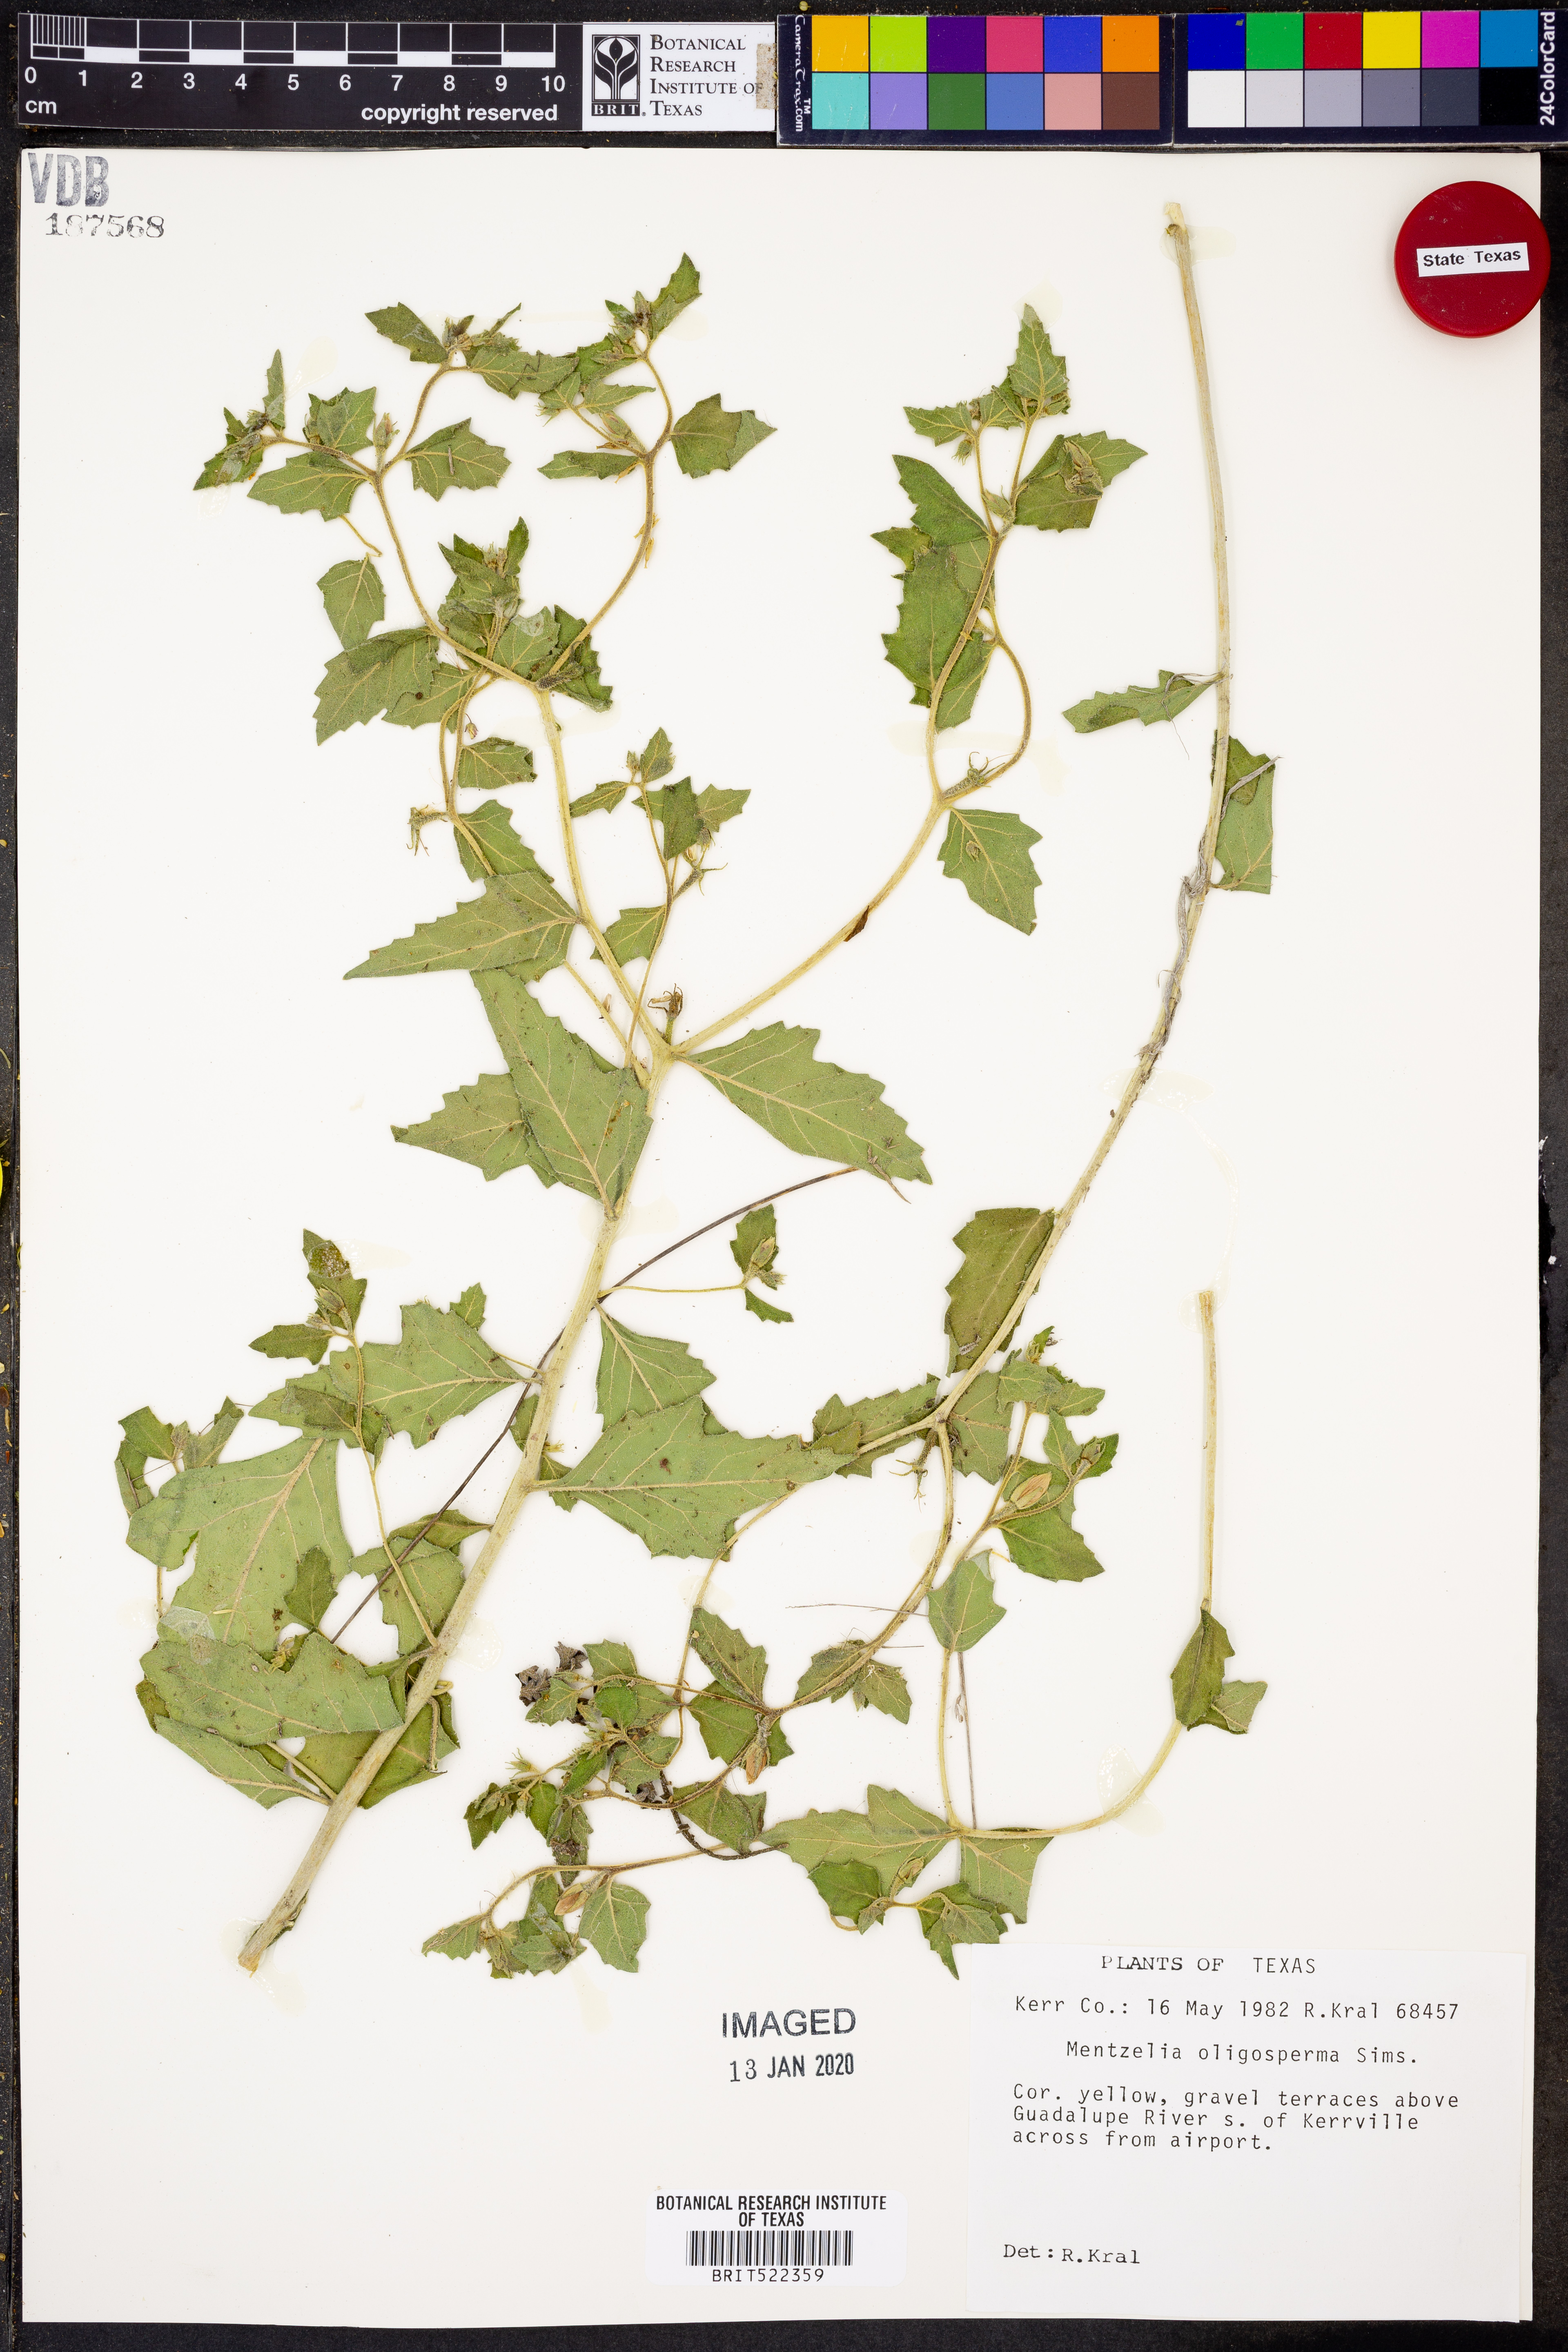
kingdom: Plantae
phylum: Tracheophyta
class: Magnoliopsida
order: Cornales
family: Loasaceae
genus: Mentzelia
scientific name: Mentzelia oligosperma
